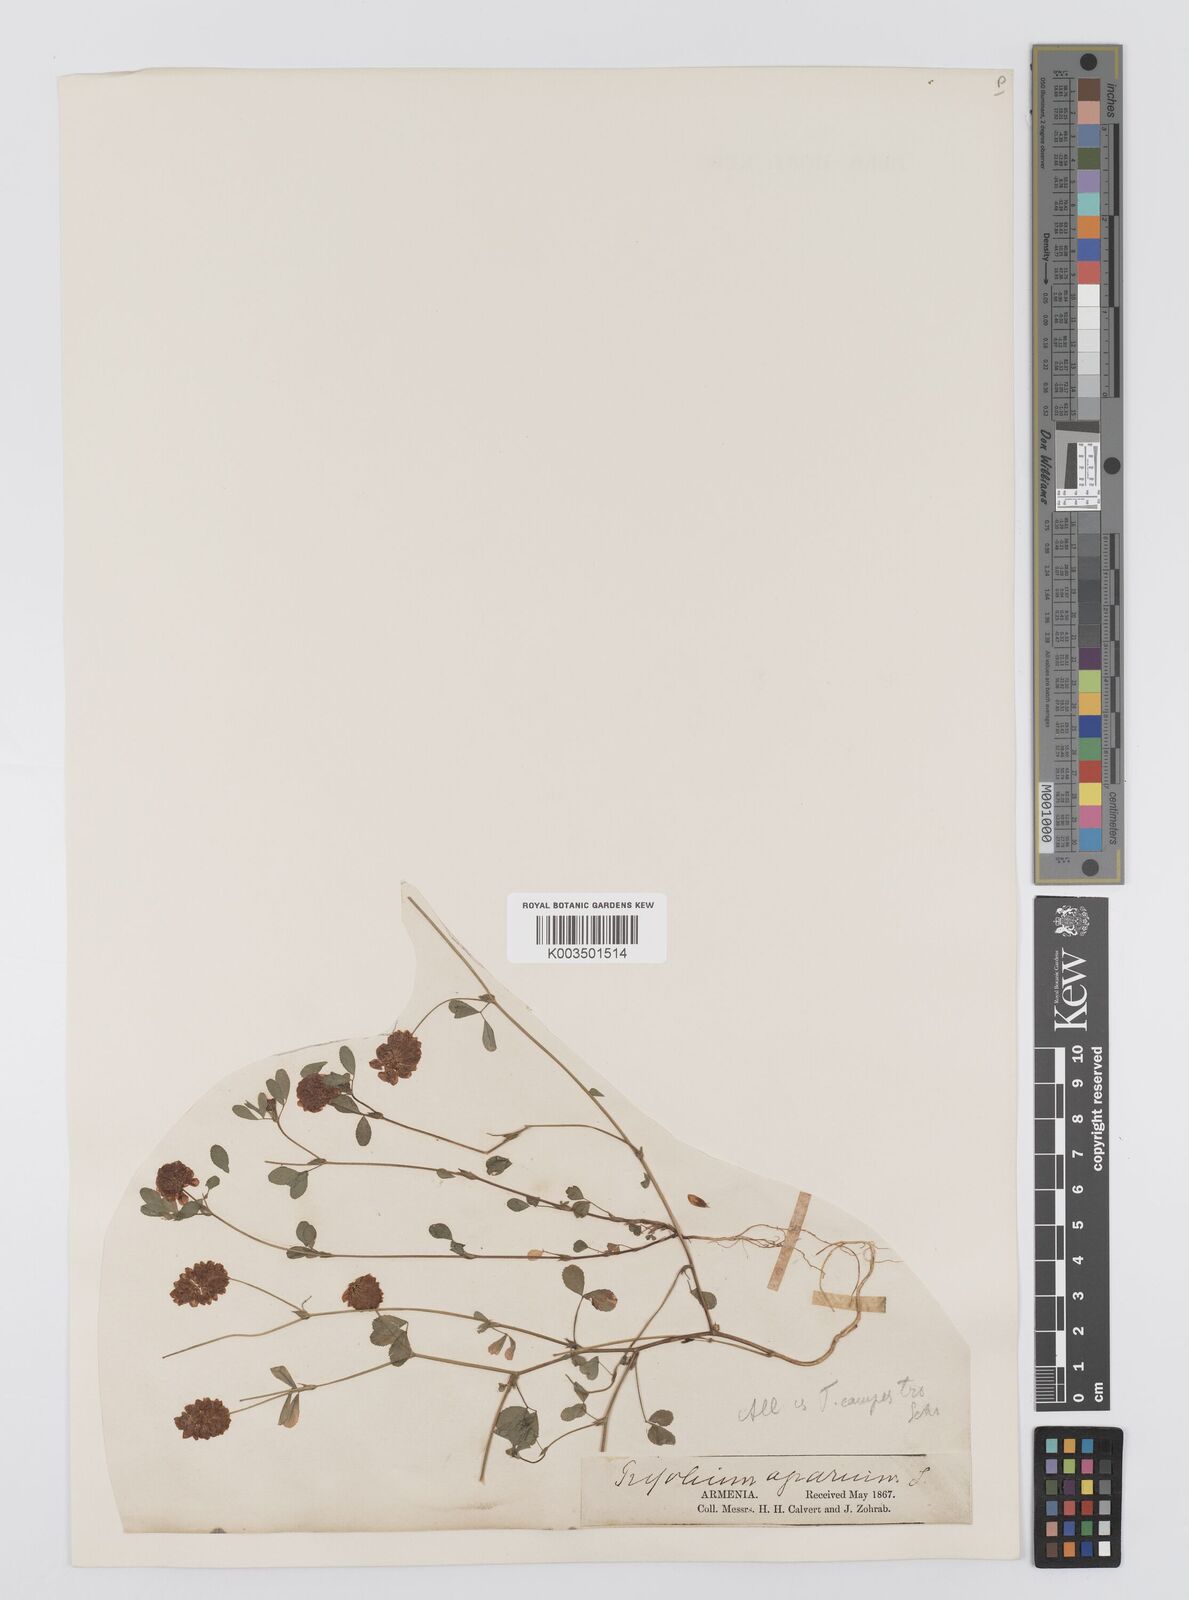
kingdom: Plantae
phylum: Tracheophyta
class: Magnoliopsida
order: Fabales
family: Fabaceae
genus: Trifolium
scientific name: Trifolium campestre
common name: Field clover
